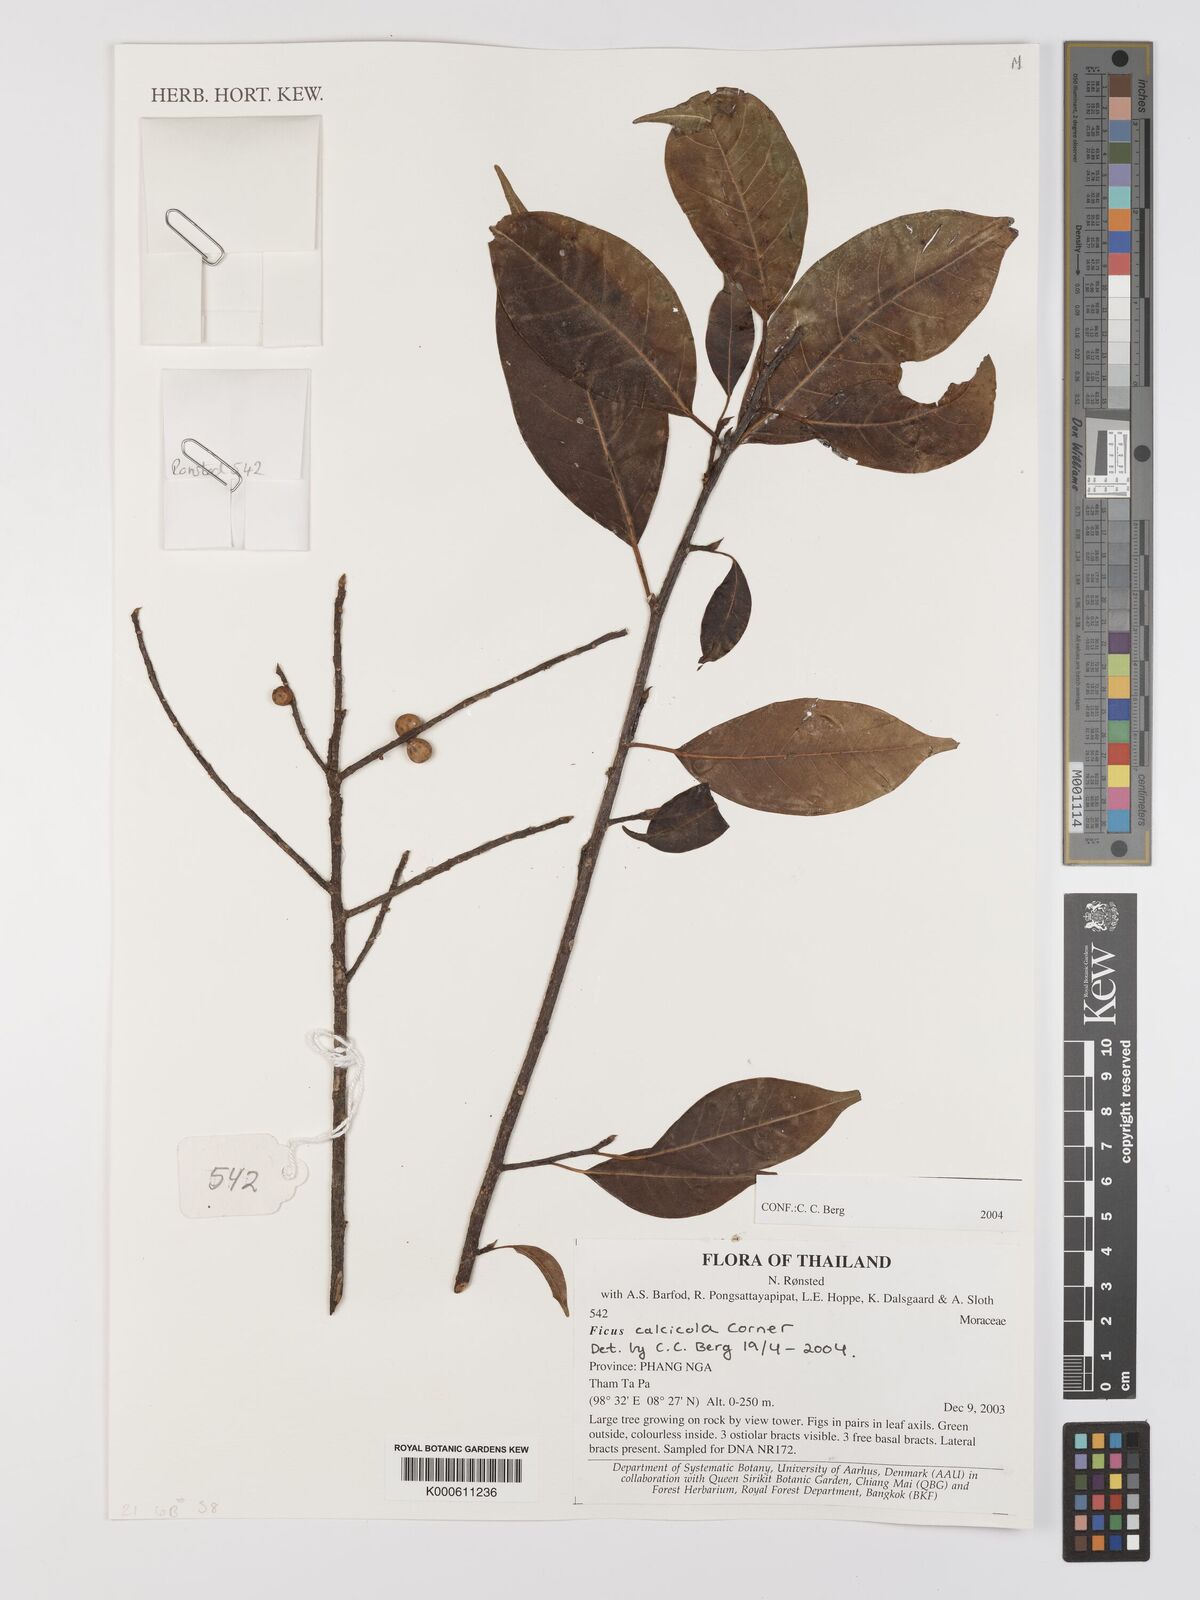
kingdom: Plantae
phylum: Tracheophyta
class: Magnoliopsida
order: Sapindales
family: Meliaceae
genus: Walsura
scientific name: Walsura pinnata
